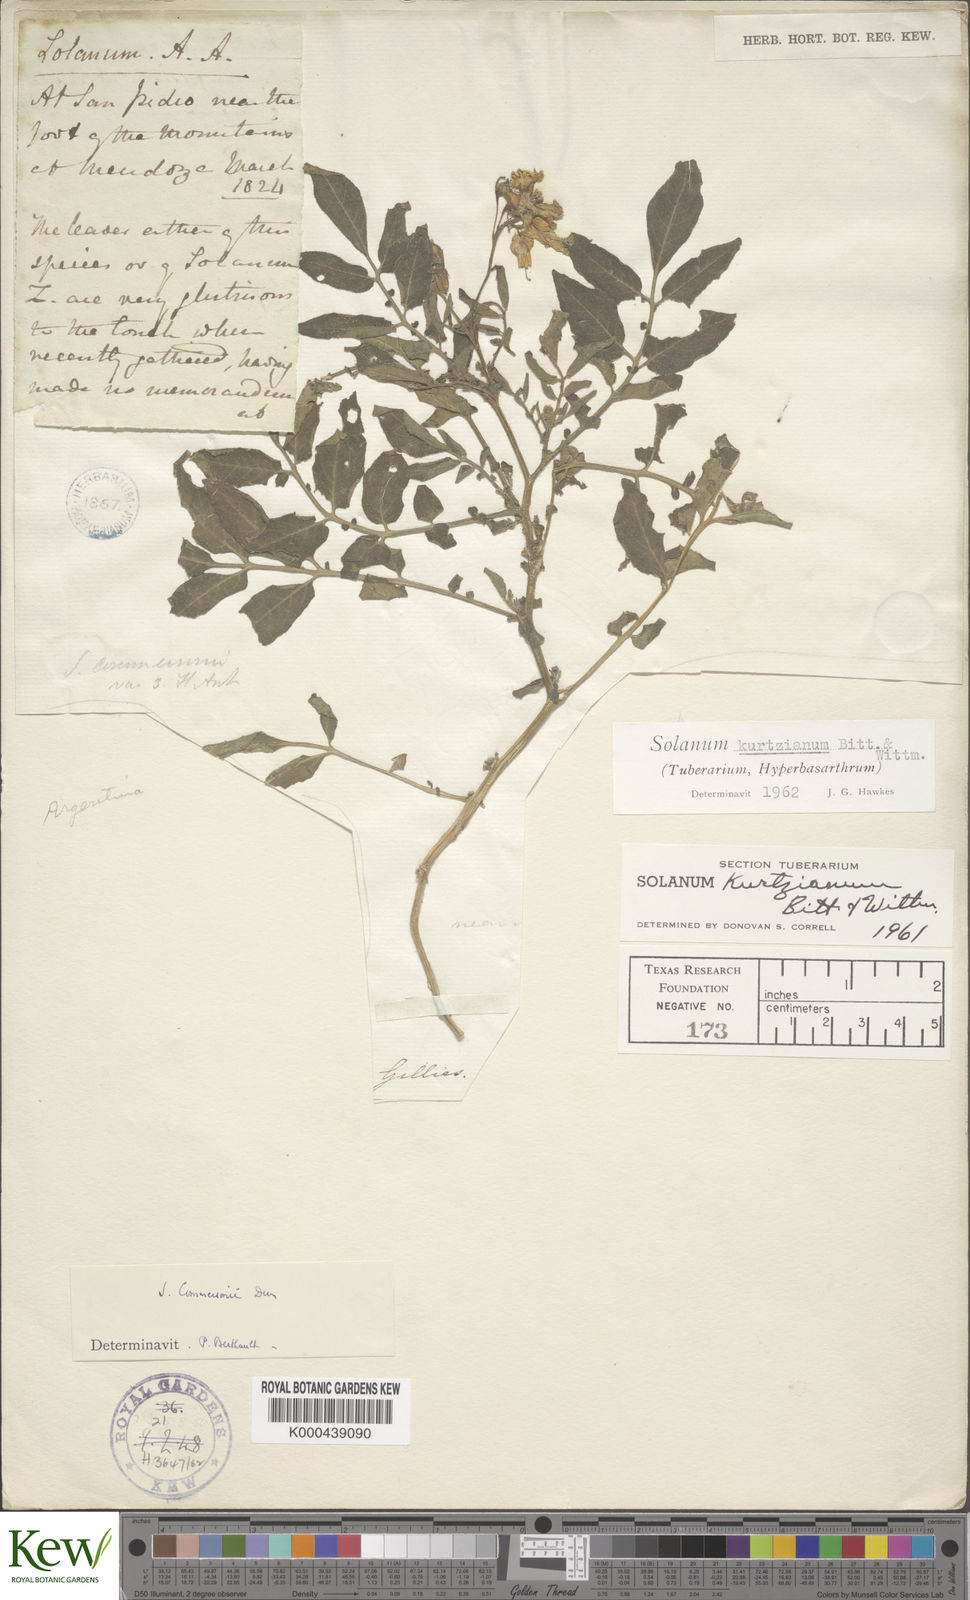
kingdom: Plantae
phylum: Tracheophyta
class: Magnoliopsida
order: Solanales
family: Solanaceae
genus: Solanum
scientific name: Solanum kurtzianum
